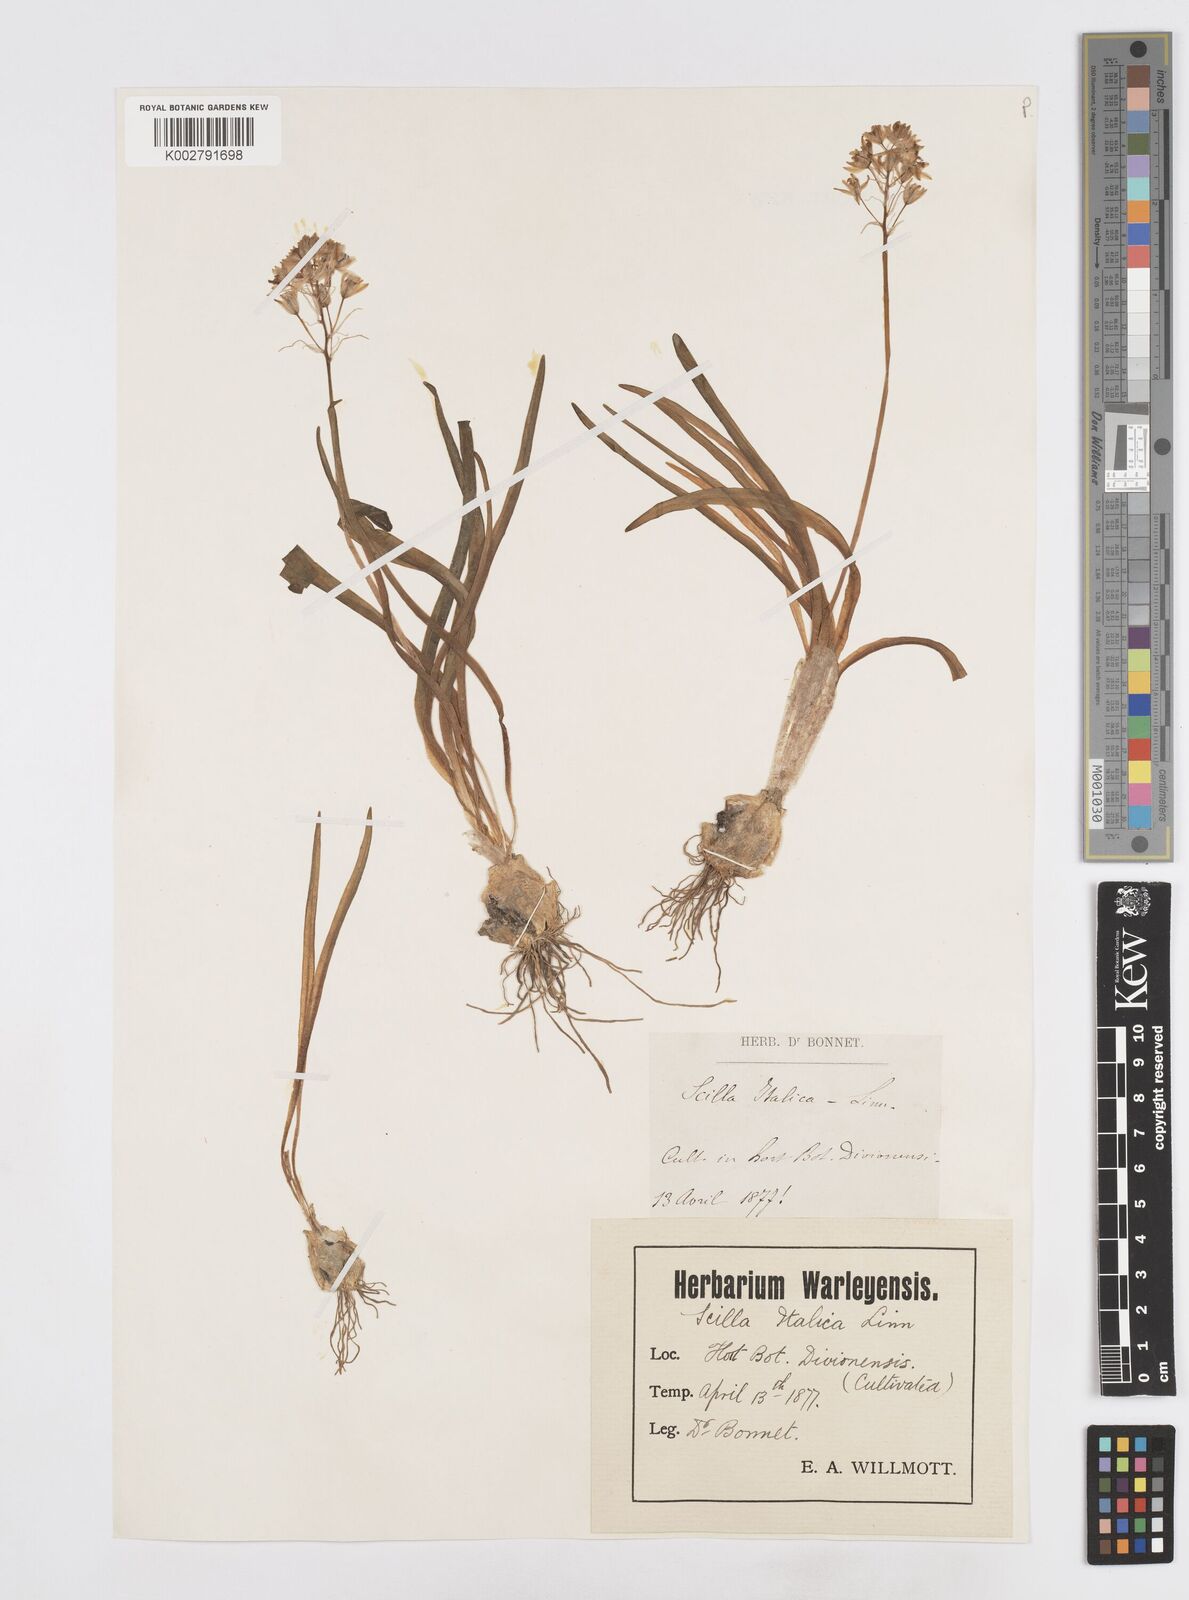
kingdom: Plantae
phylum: Tracheophyta
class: Liliopsida
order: Asparagales
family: Asparagaceae
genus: Hyacinthoides
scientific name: Hyacinthoides italica
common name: Italian bluebell
